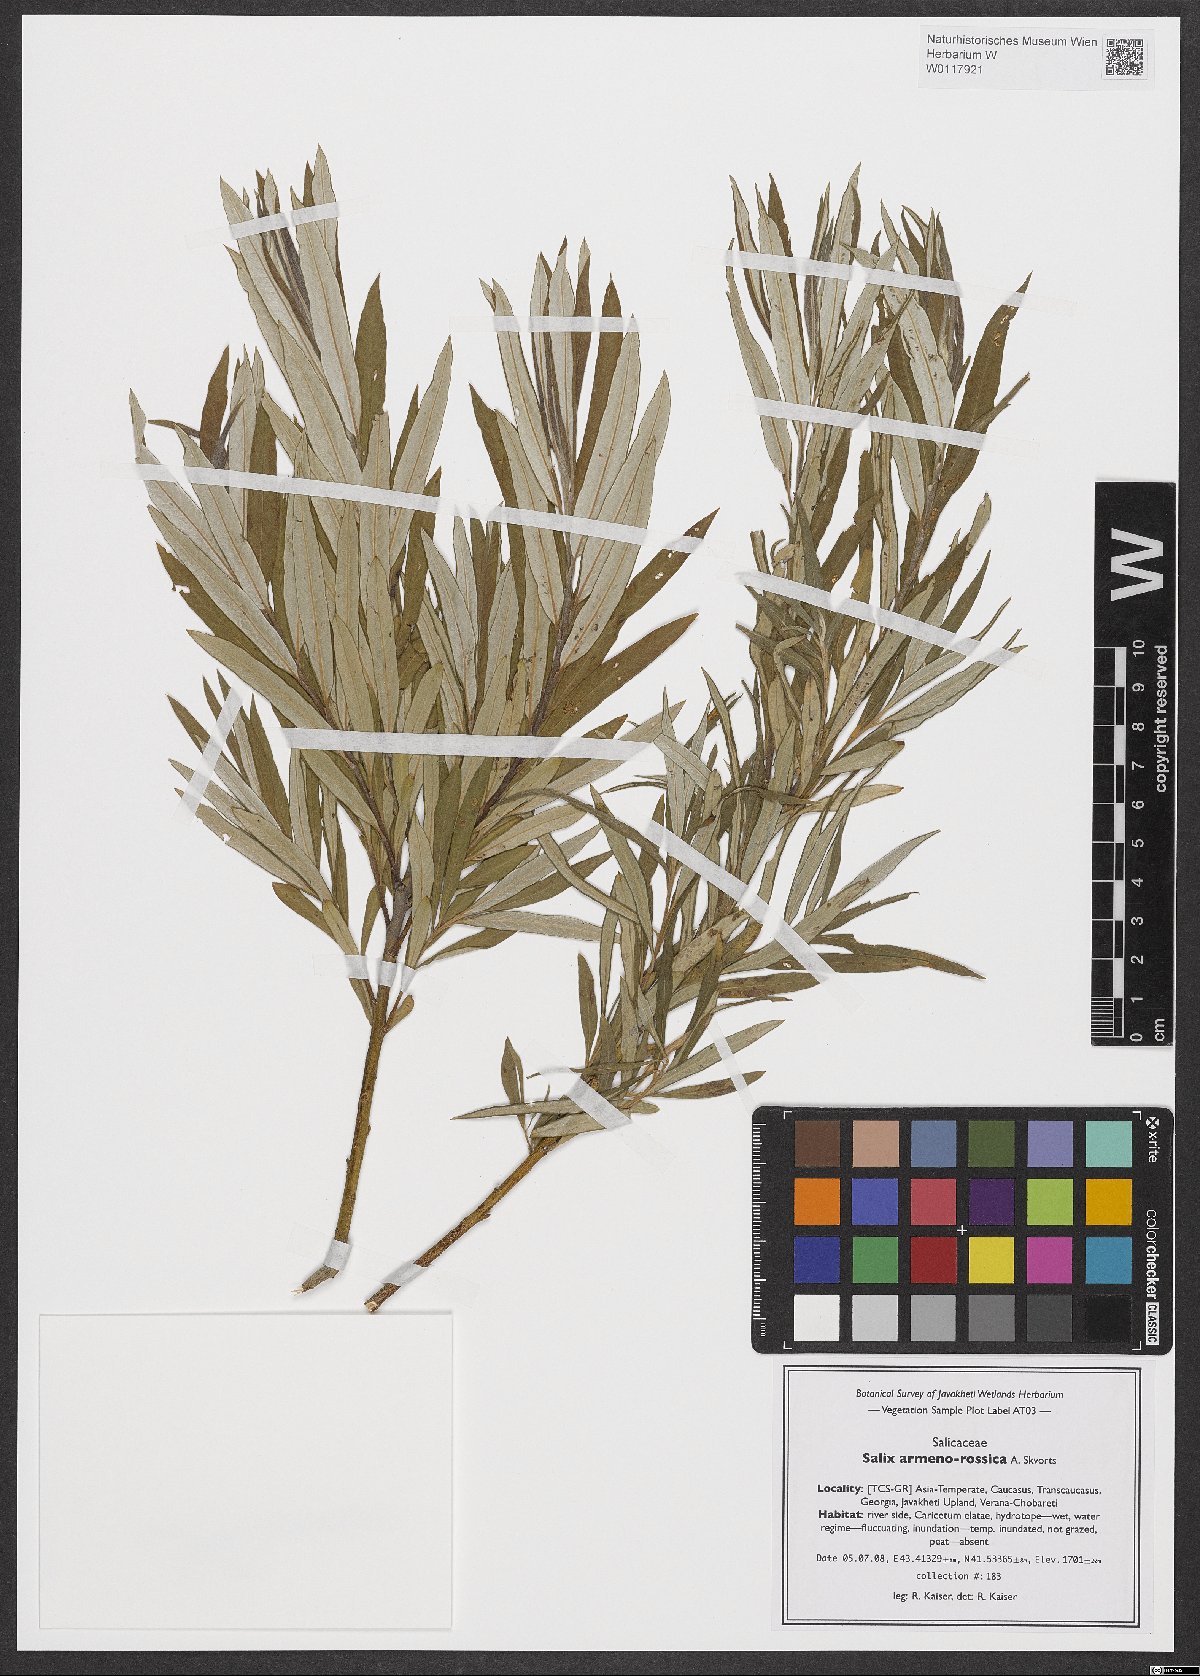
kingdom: Plantae
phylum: Tracheophyta
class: Magnoliopsida
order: Malpighiales
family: Salicaceae
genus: Salix
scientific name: Salix viminalis
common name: Osier
